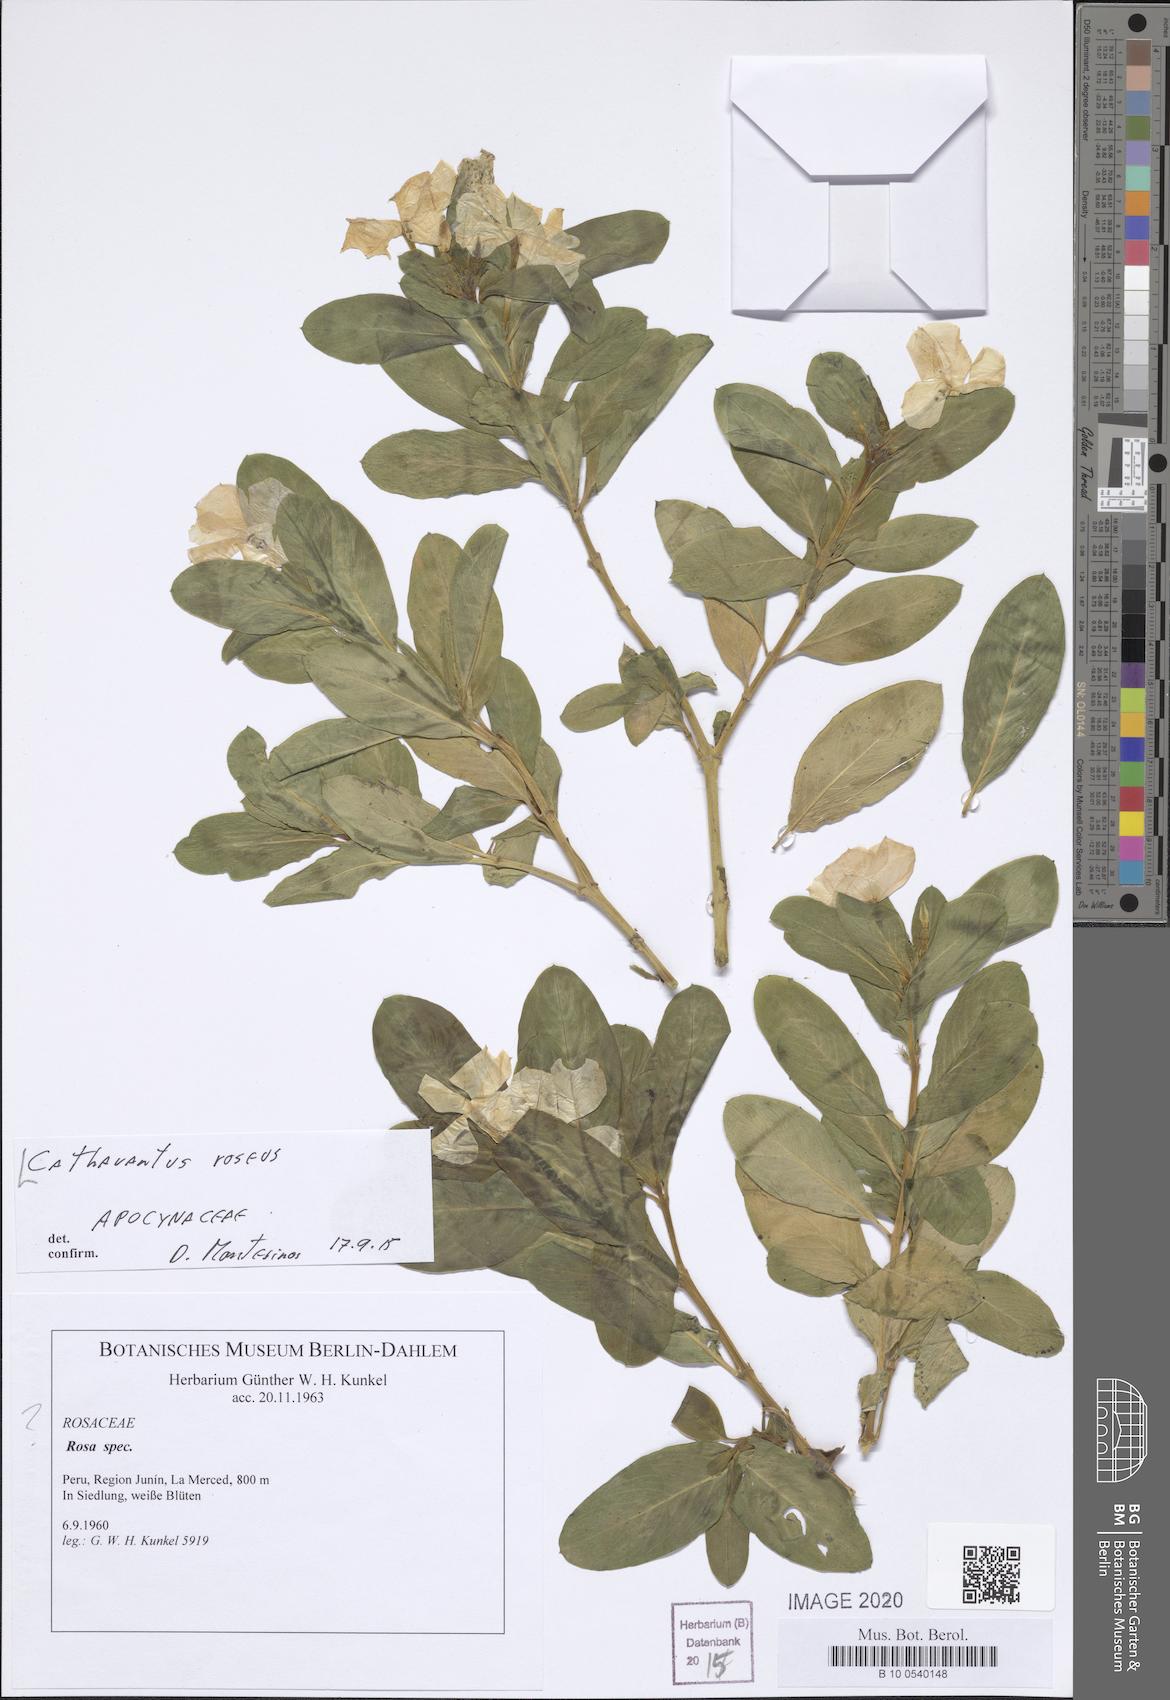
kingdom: Plantae
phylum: Tracheophyta
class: Magnoliopsida
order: Gentianales
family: Apocynaceae
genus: Catharanthus
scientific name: Catharanthus roseus
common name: Madagascar periwinkle
